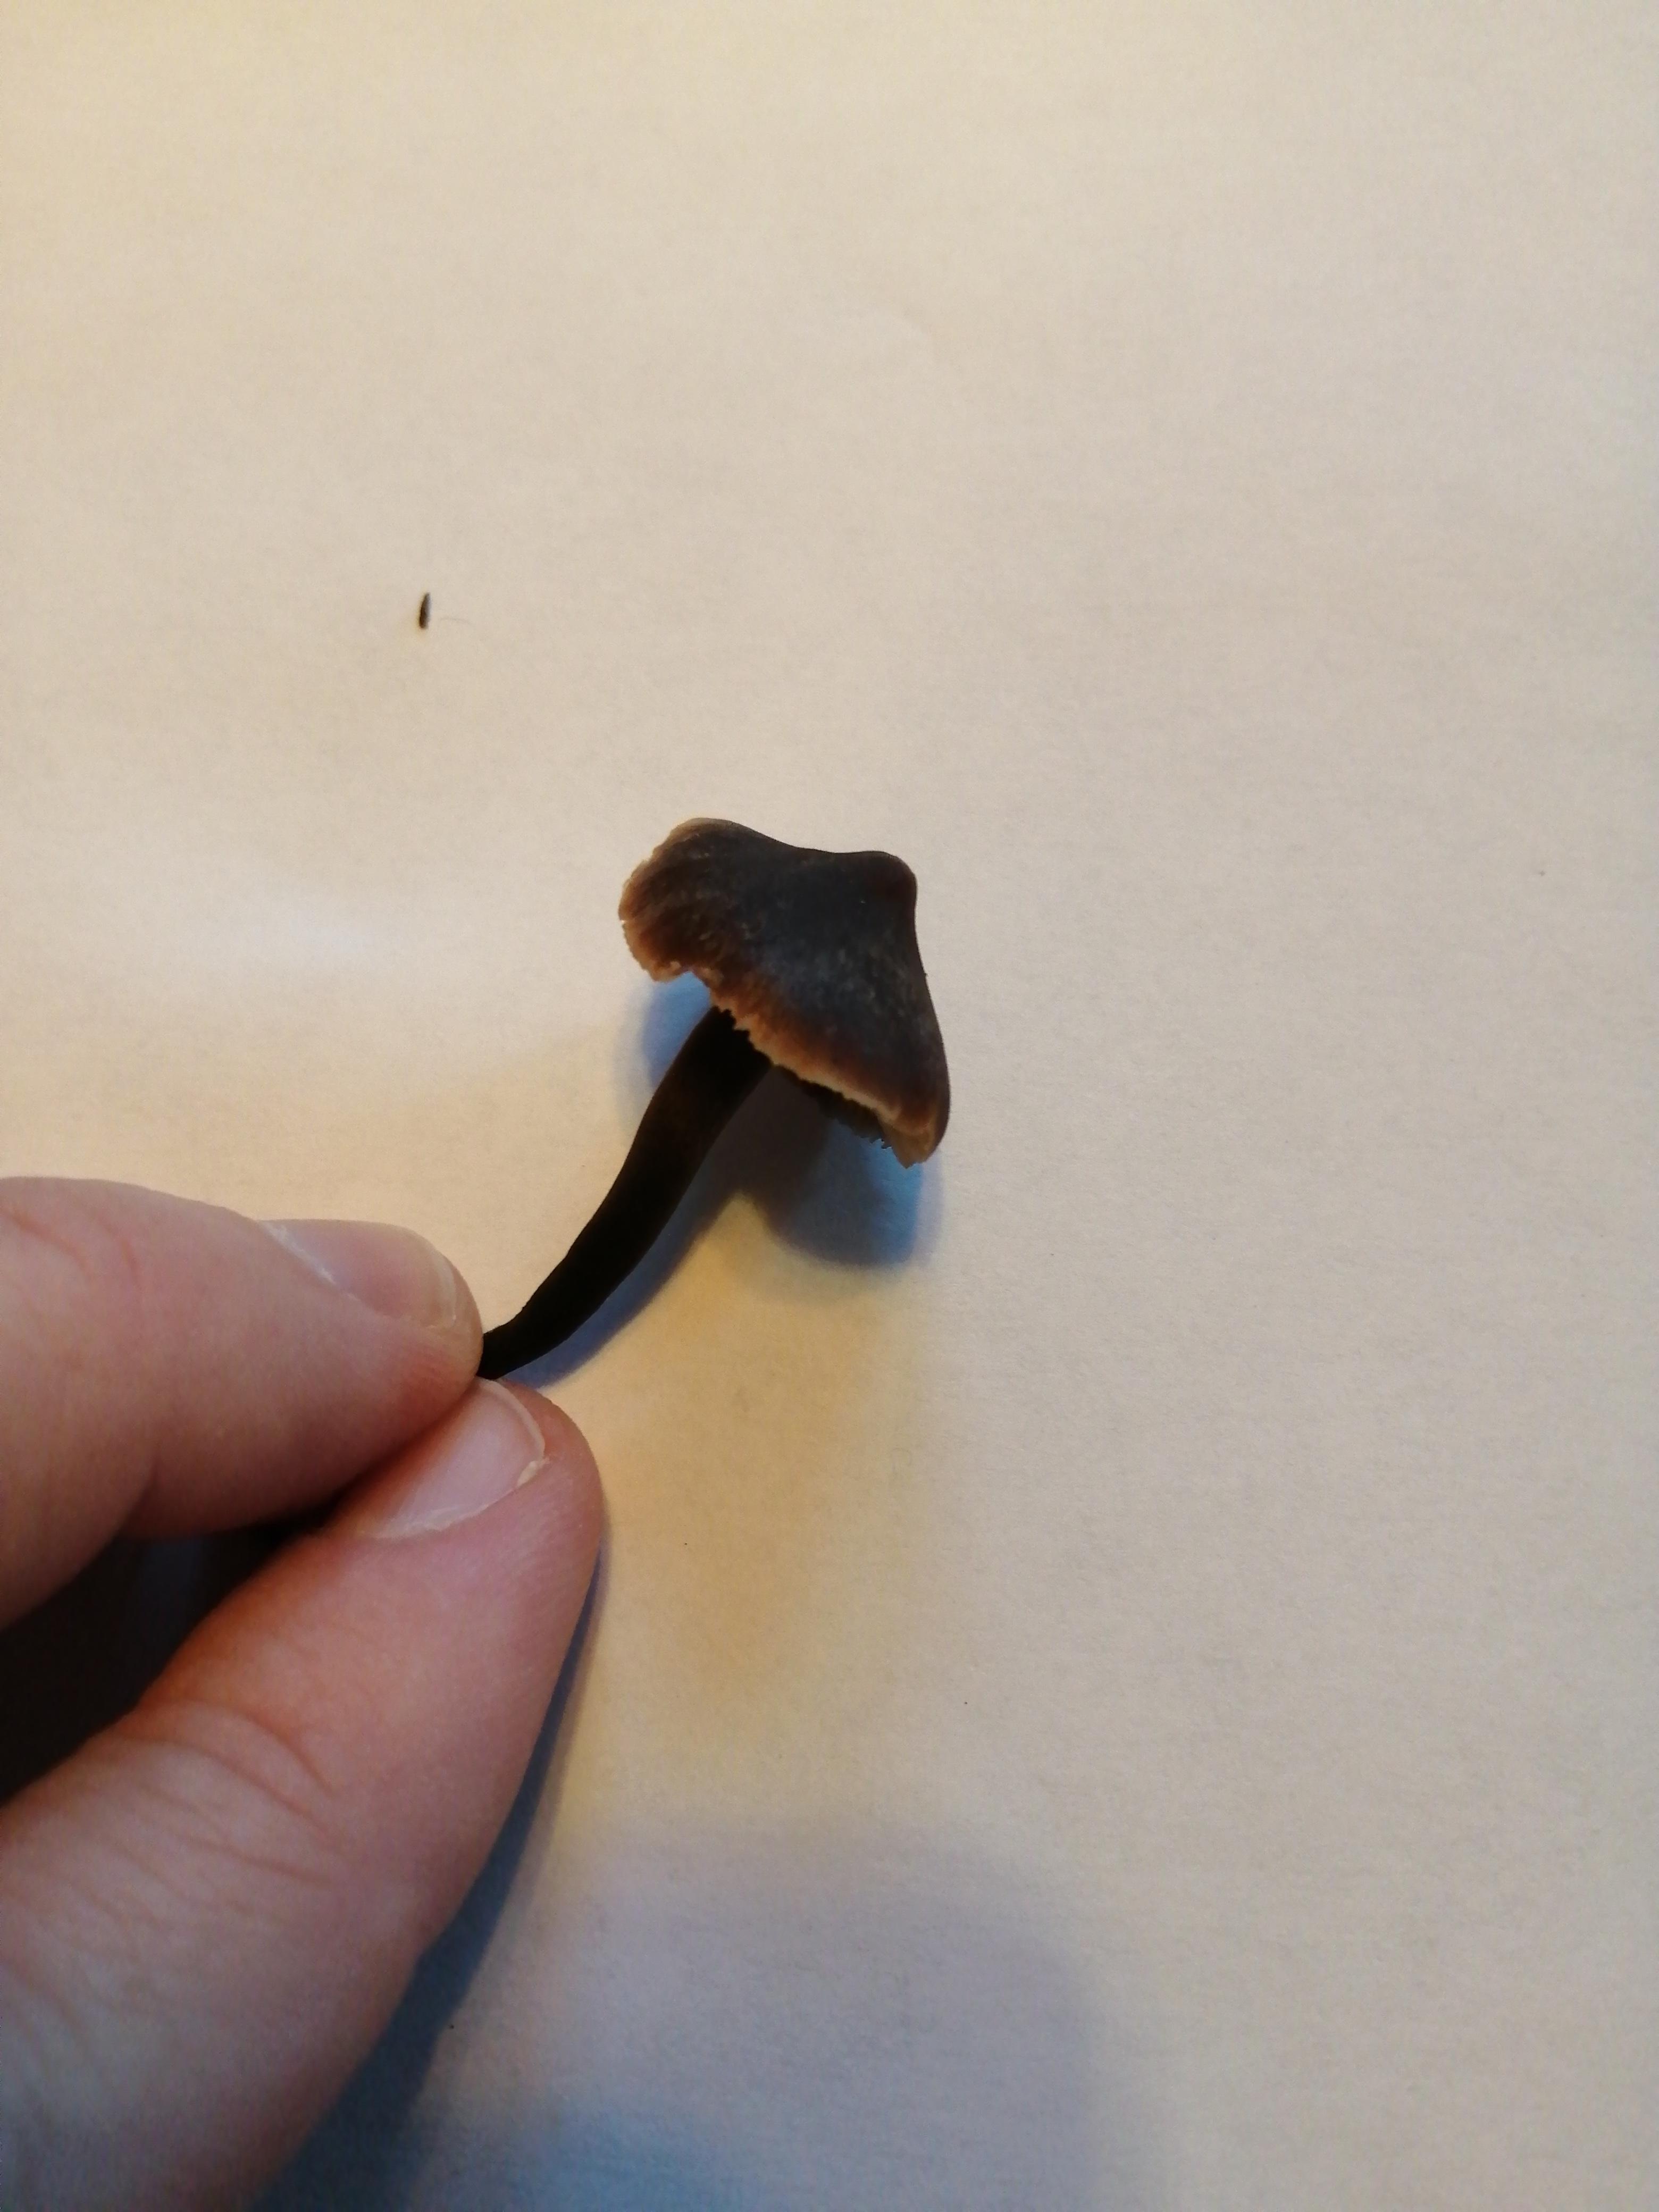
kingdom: Fungi
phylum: Basidiomycota
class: Agaricomycetes
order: Agaricales
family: Macrocystidiaceae
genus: Macrocystidia
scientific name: Macrocystidia cucumis
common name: agurkehat
